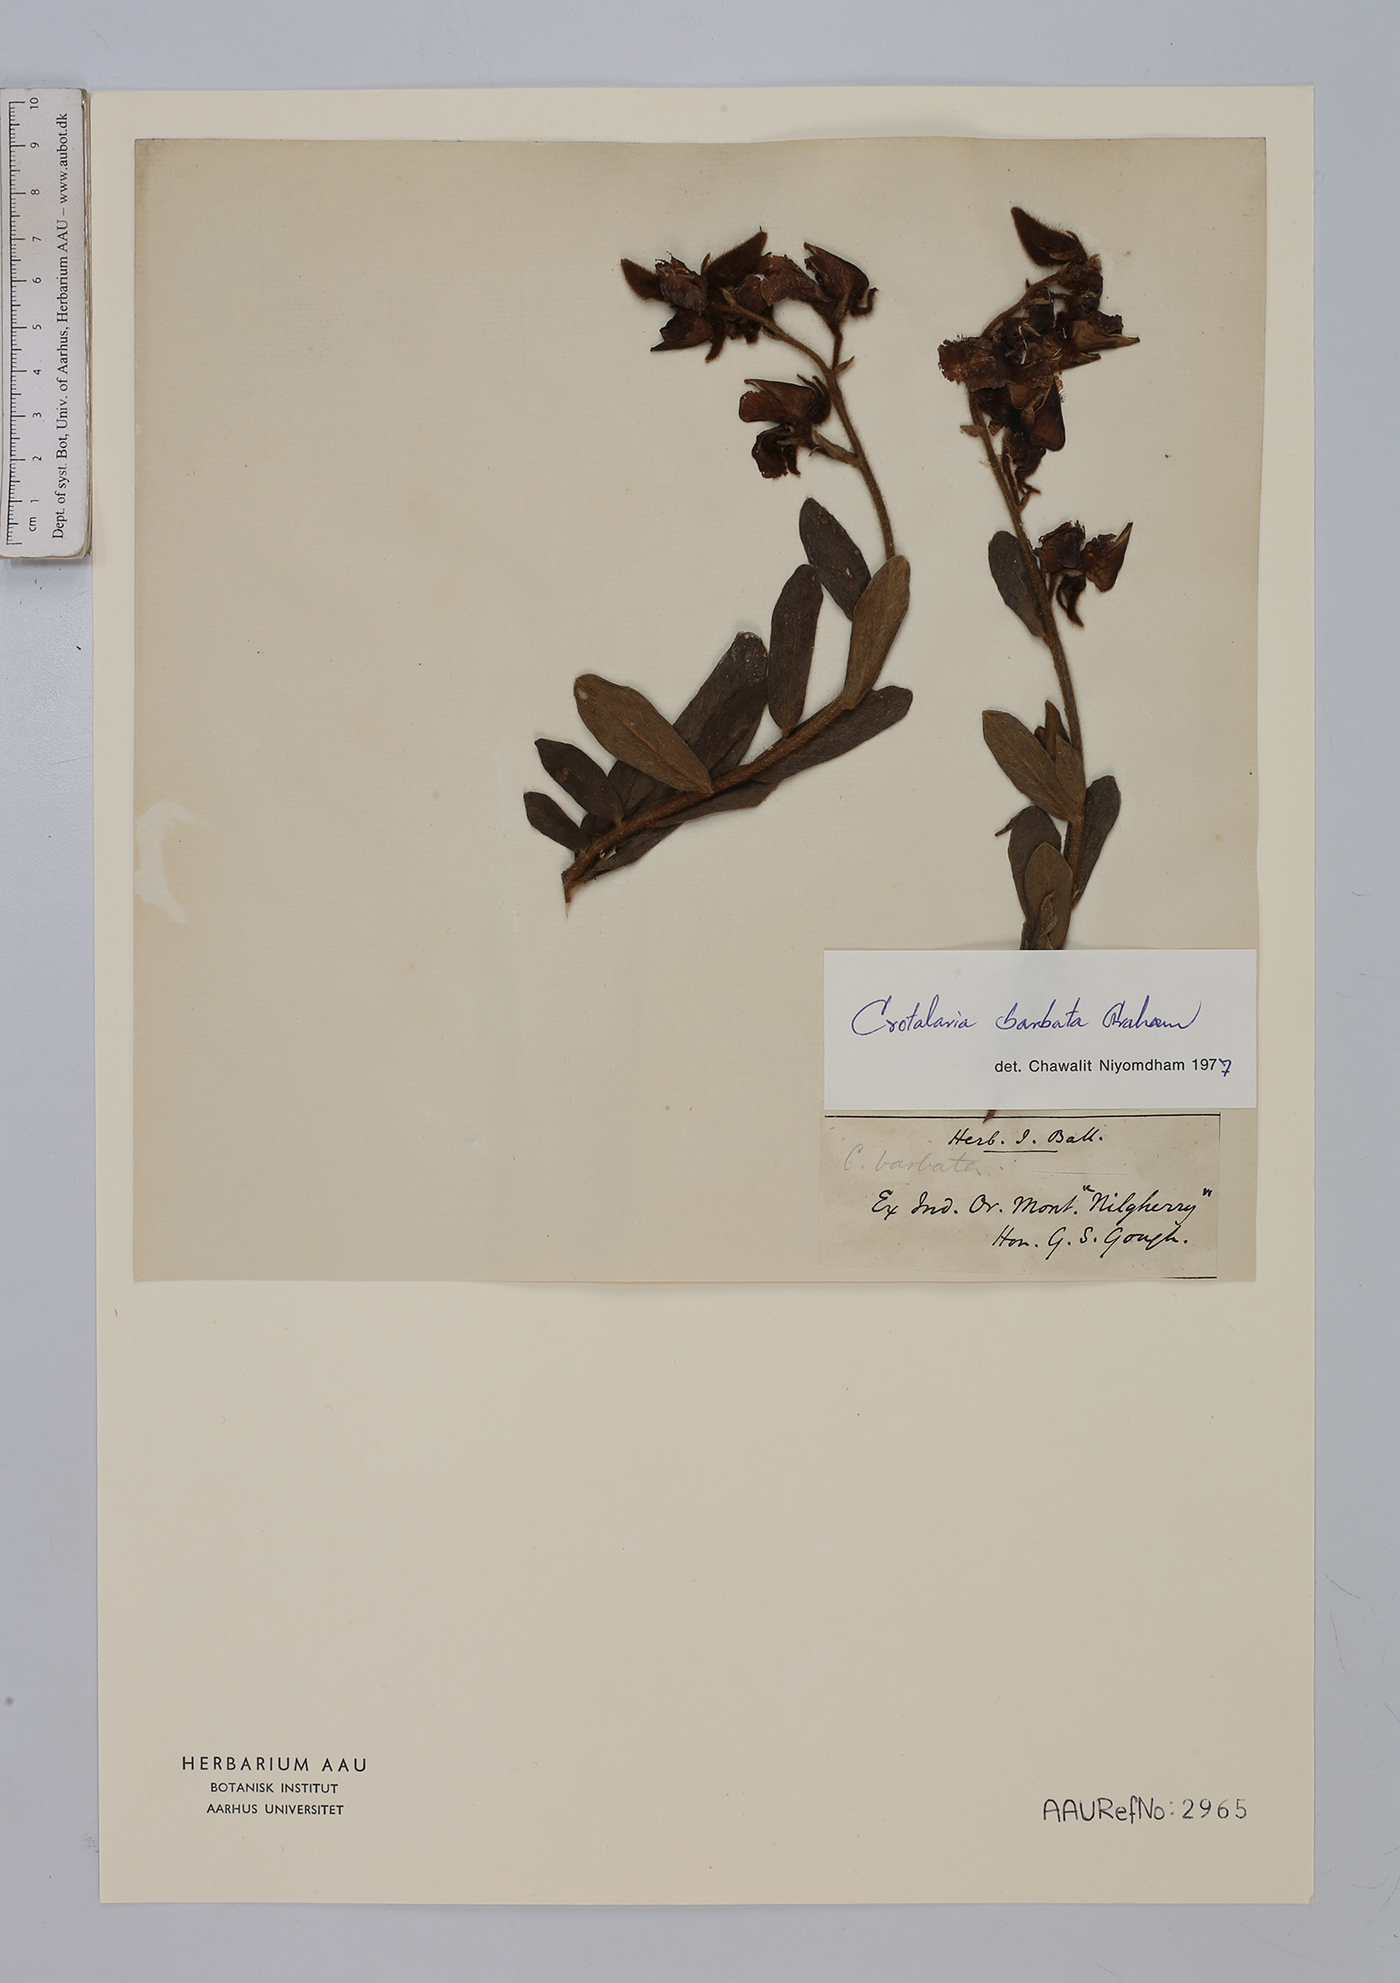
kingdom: Plantae
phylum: Tracheophyta
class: Magnoliopsida
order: Fabales
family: Fabaceae
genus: Crotalaria
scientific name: Crotalaria barbata
